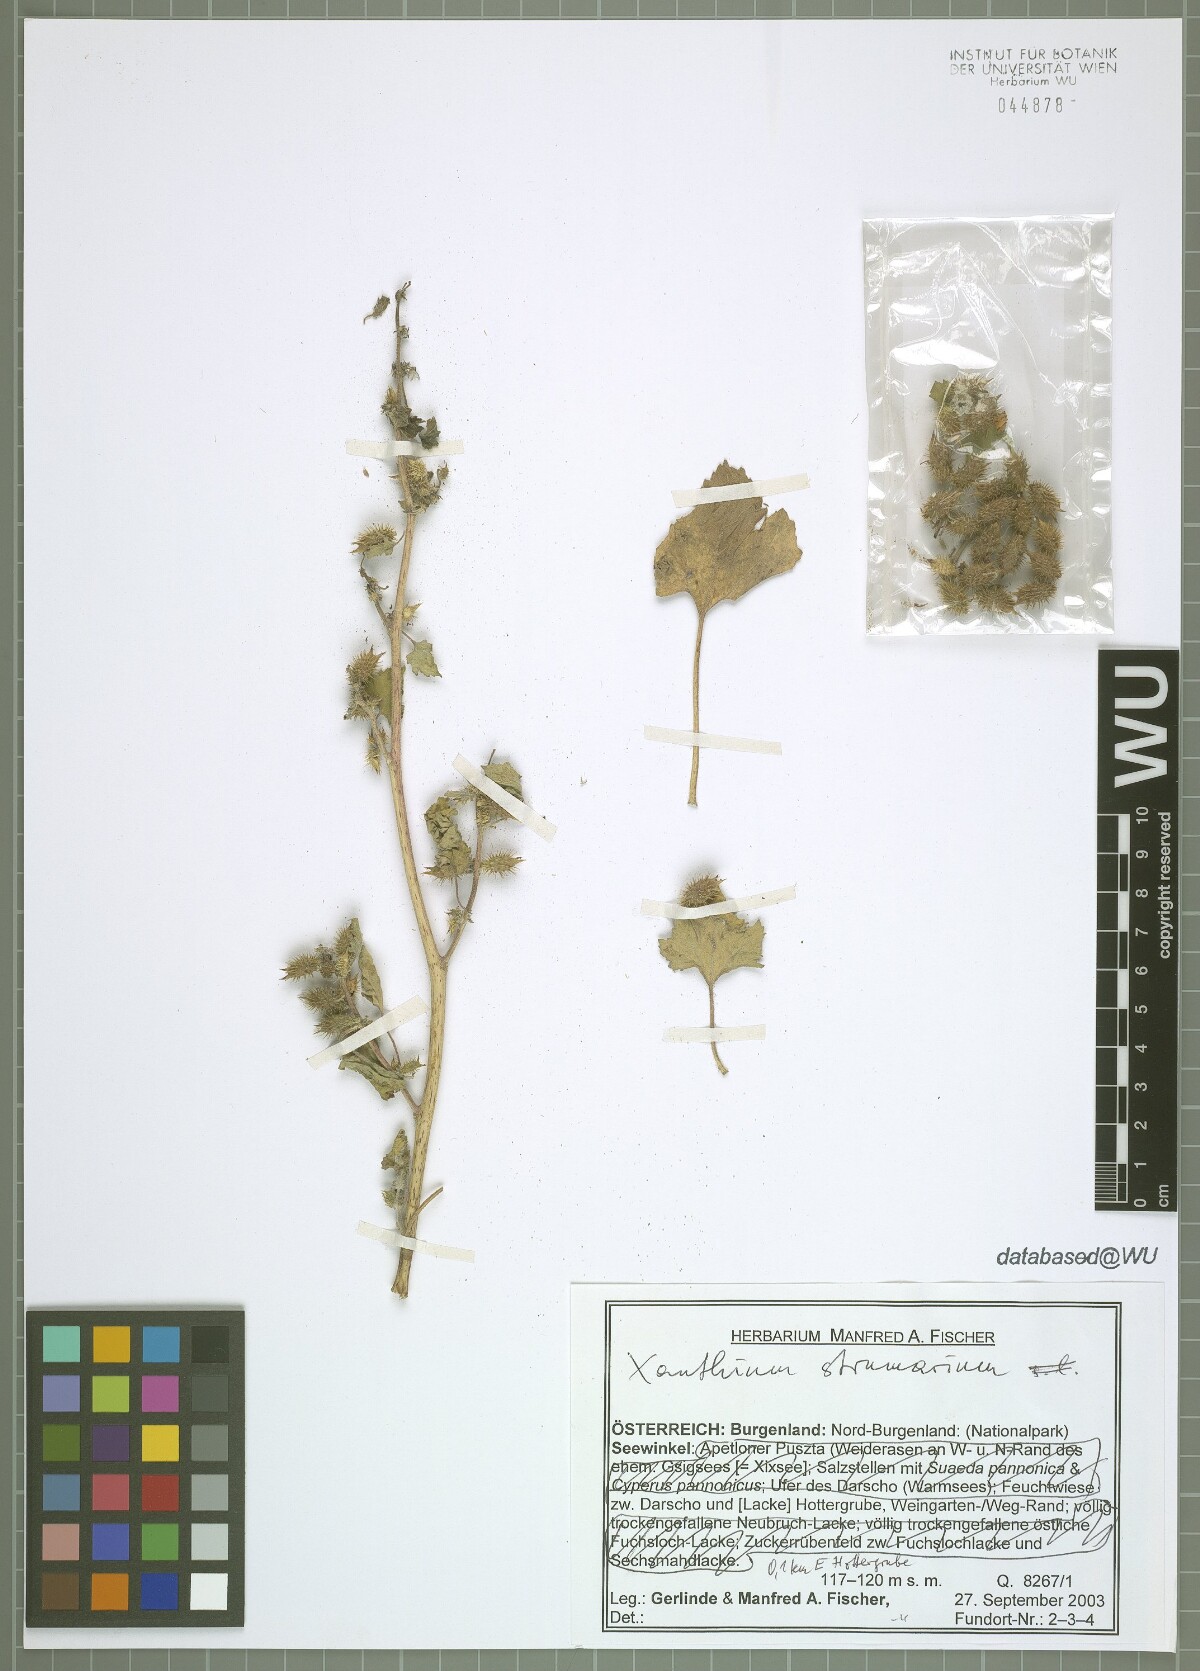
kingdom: Plantae
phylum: Tracheophyta
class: Magnoliopsida
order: Asterales
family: Asteraceae
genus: Xanthium
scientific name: Xanthium strumarium
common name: Rough cocklebur
